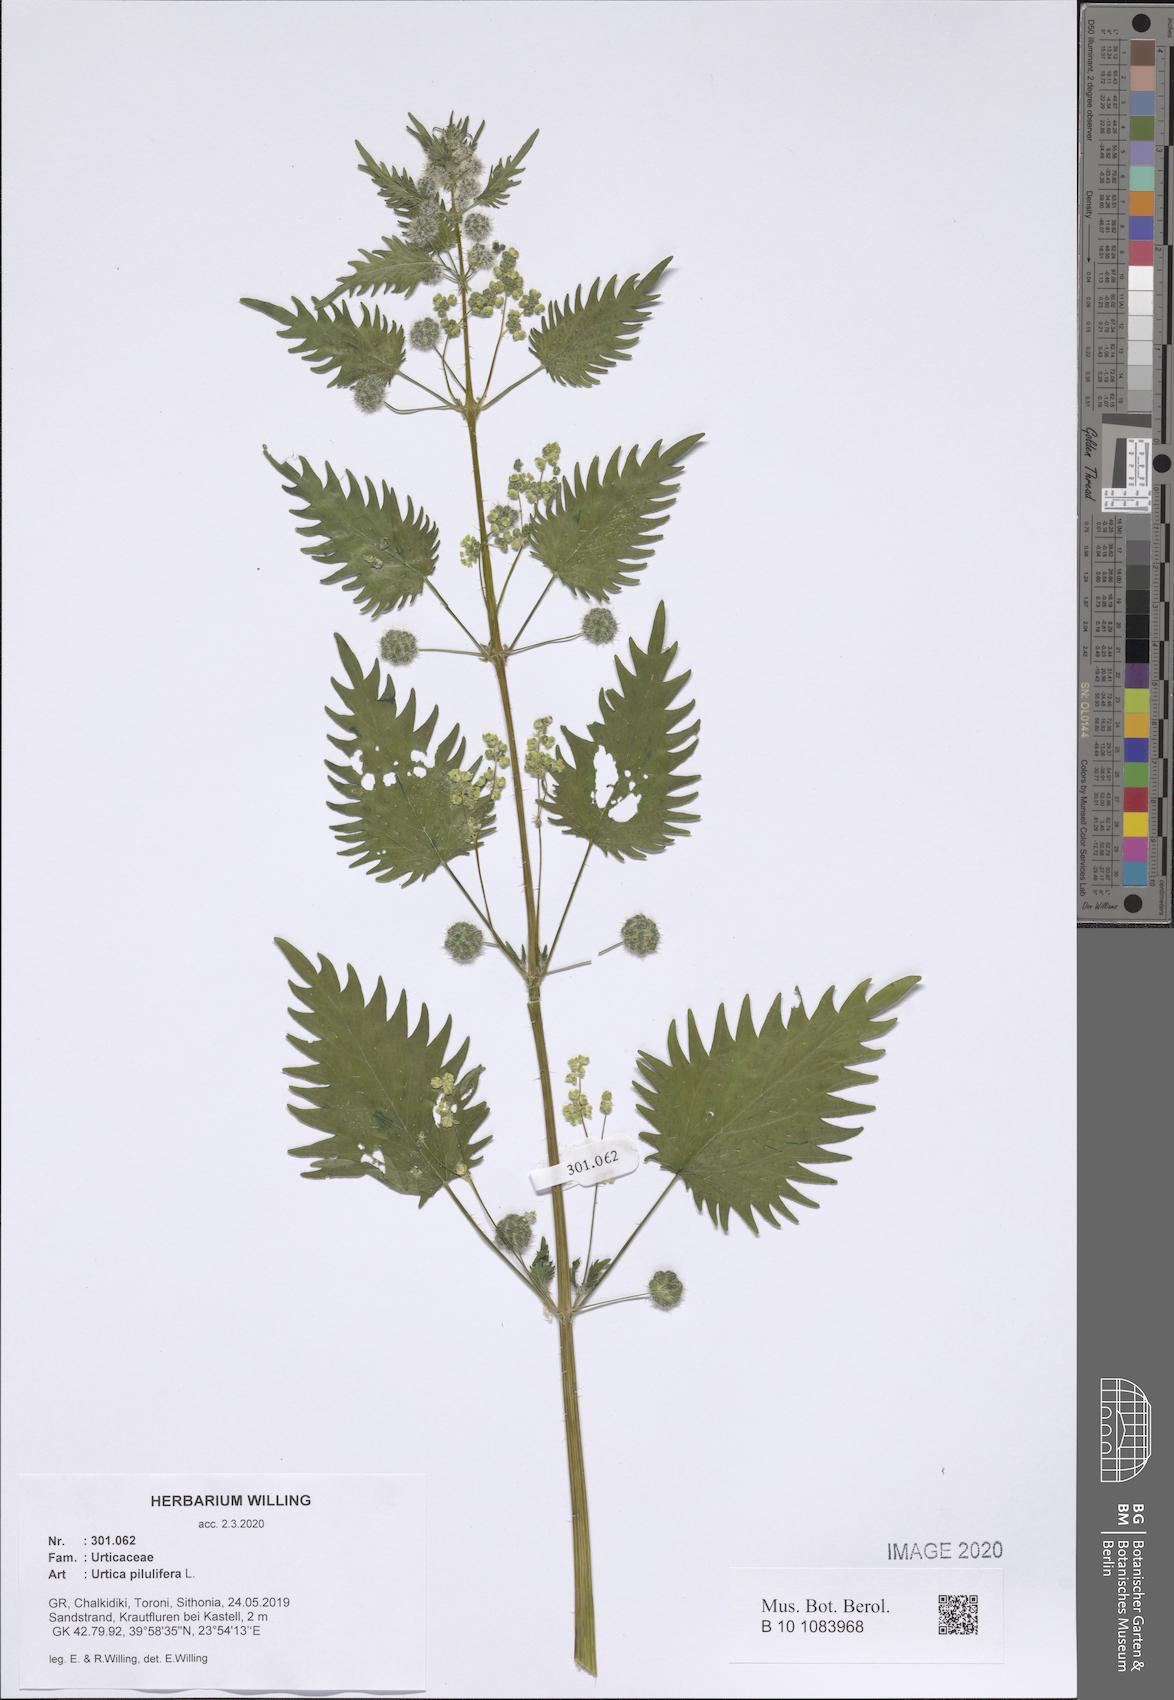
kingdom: Plantae
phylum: Tracheophyta
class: Magnoliopsida
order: Rosales
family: Urticaceae
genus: Urtica
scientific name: Urtica pilulifera
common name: Roman nettle
